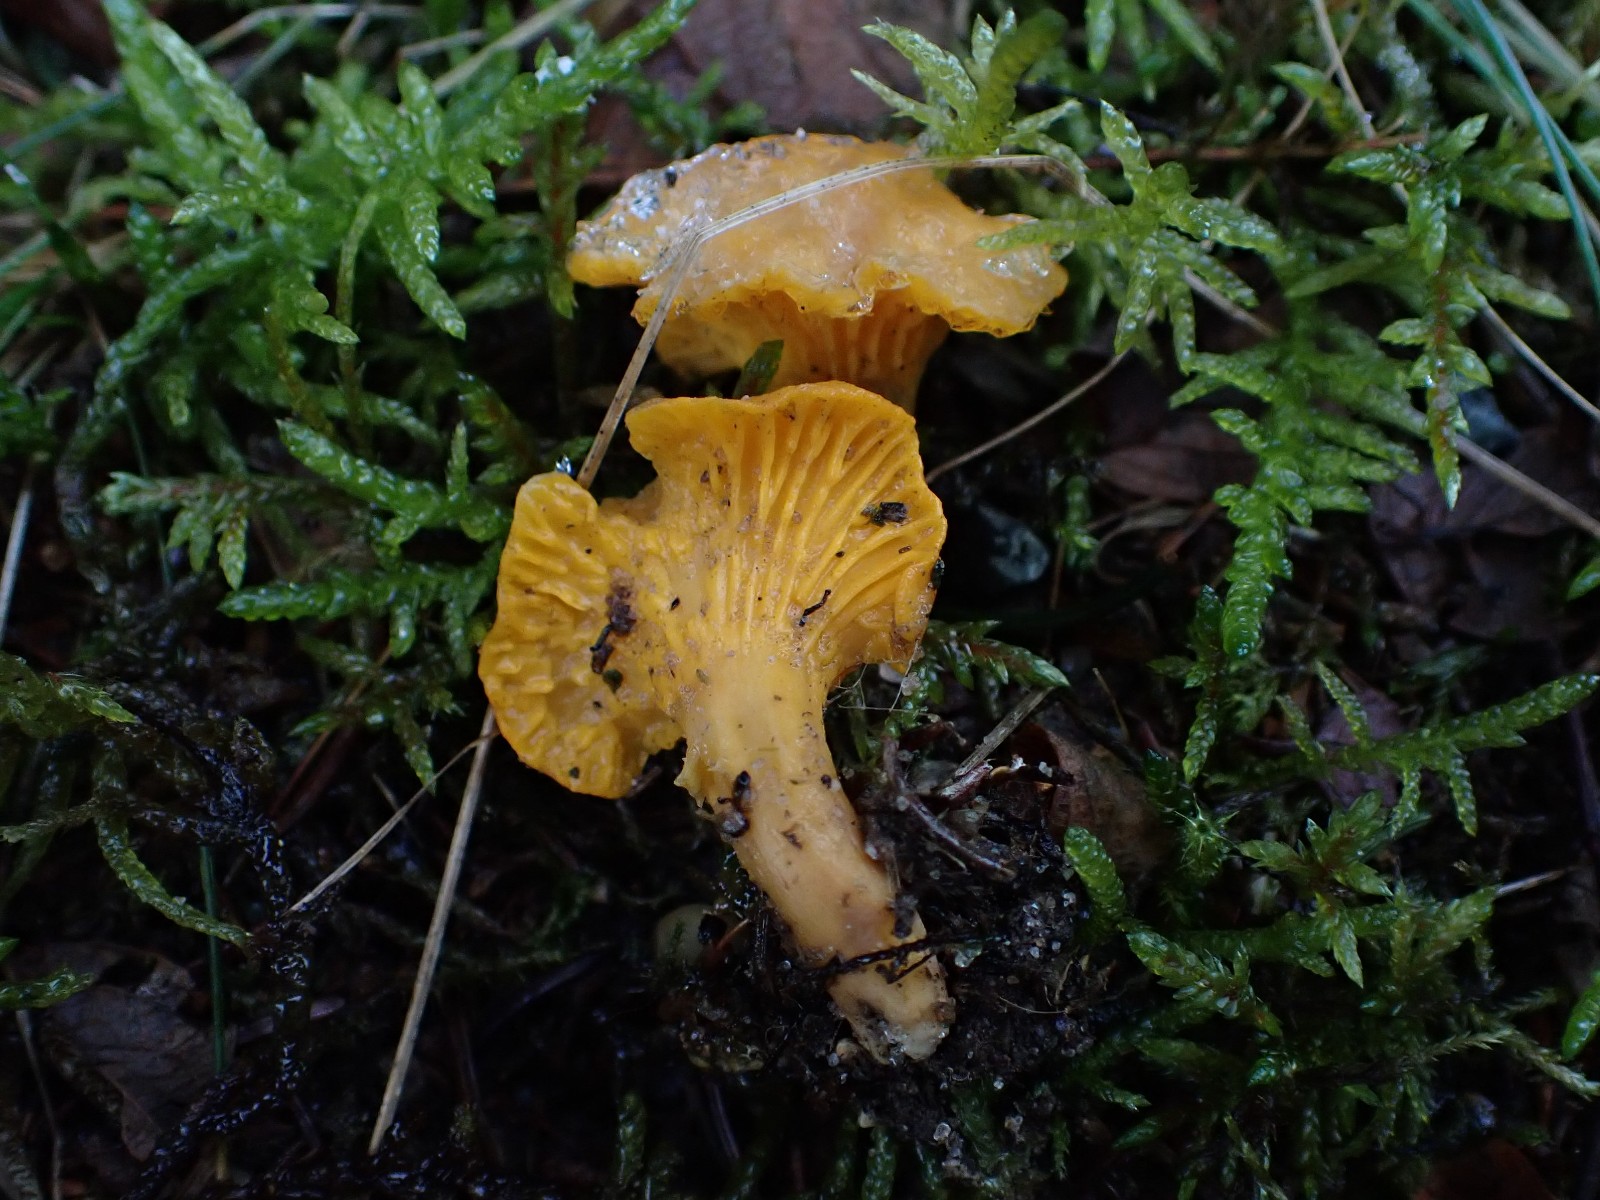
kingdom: Fungi
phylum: Basidiomycota
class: Agaricomycetes
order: Cantharellales
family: Hydnaceae
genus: Cantharellus
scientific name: Cantharellus cibarius
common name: almindelig kantarel
